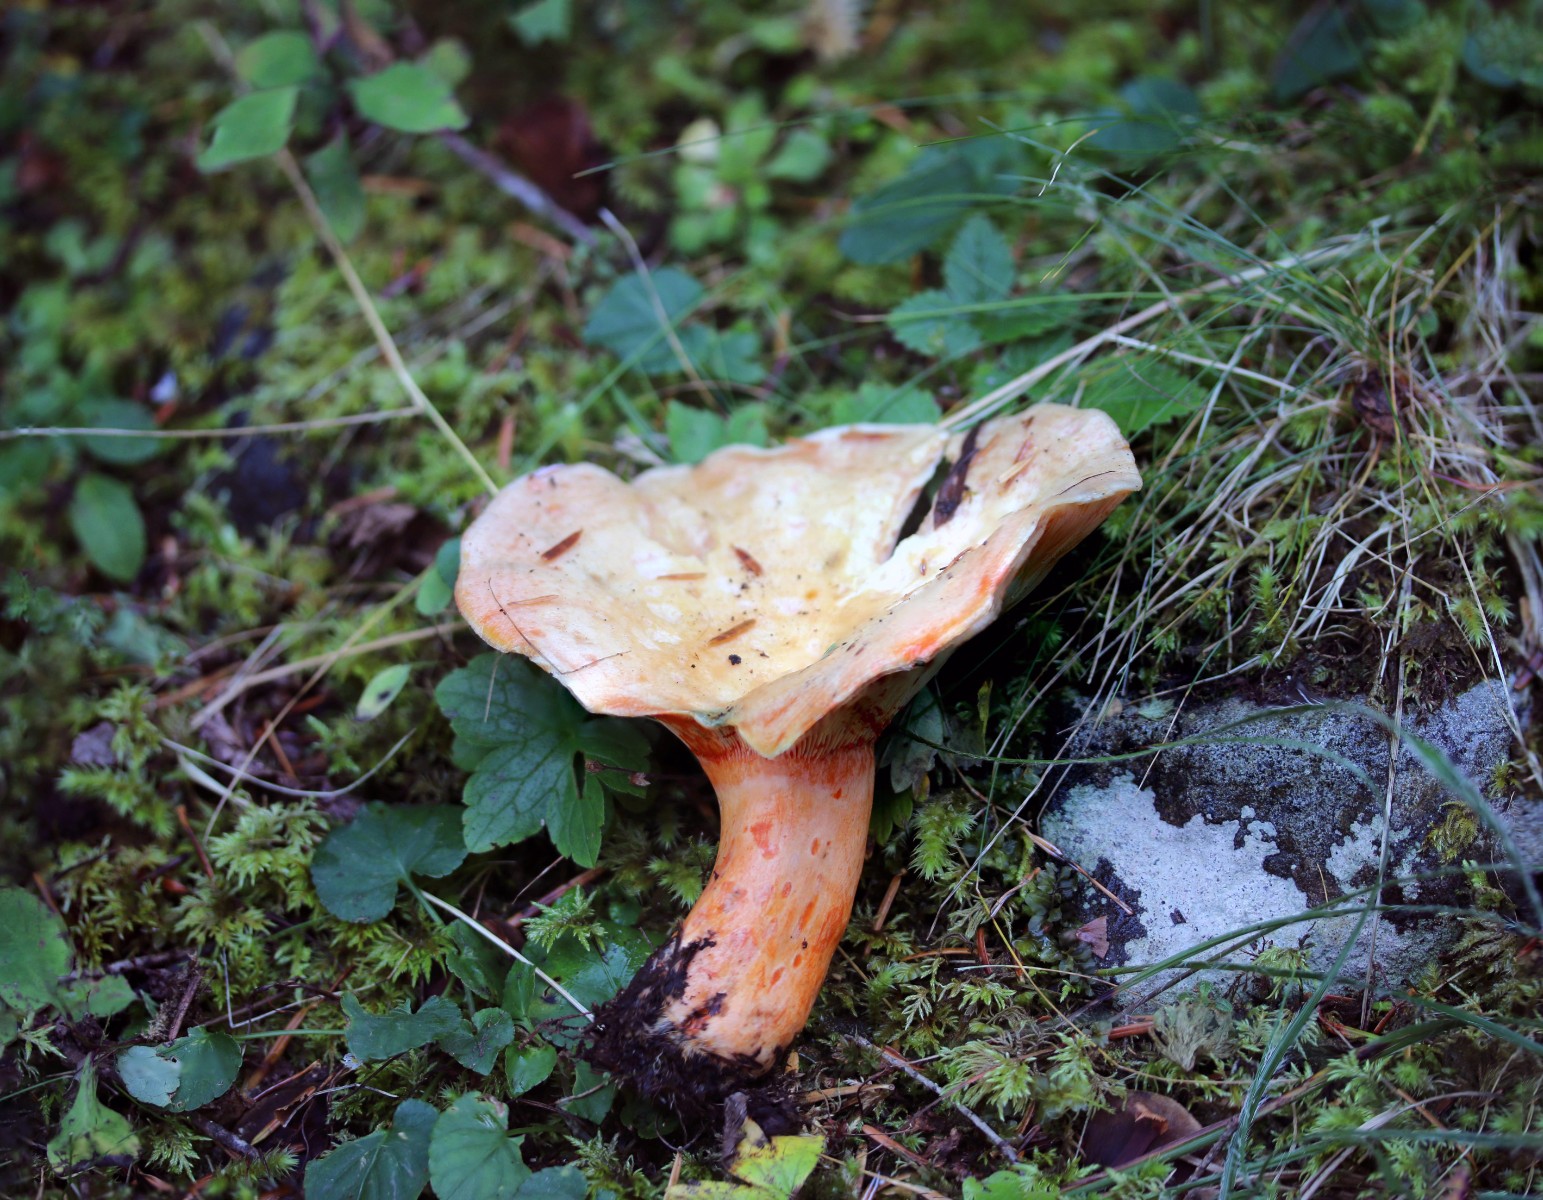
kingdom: Fungi
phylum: Basidiomycota
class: Agaricomycetes
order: Russulales
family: Russulaceae
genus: Lactarius
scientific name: Lactarius salmonicolor
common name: laksefarvet mælkehat
